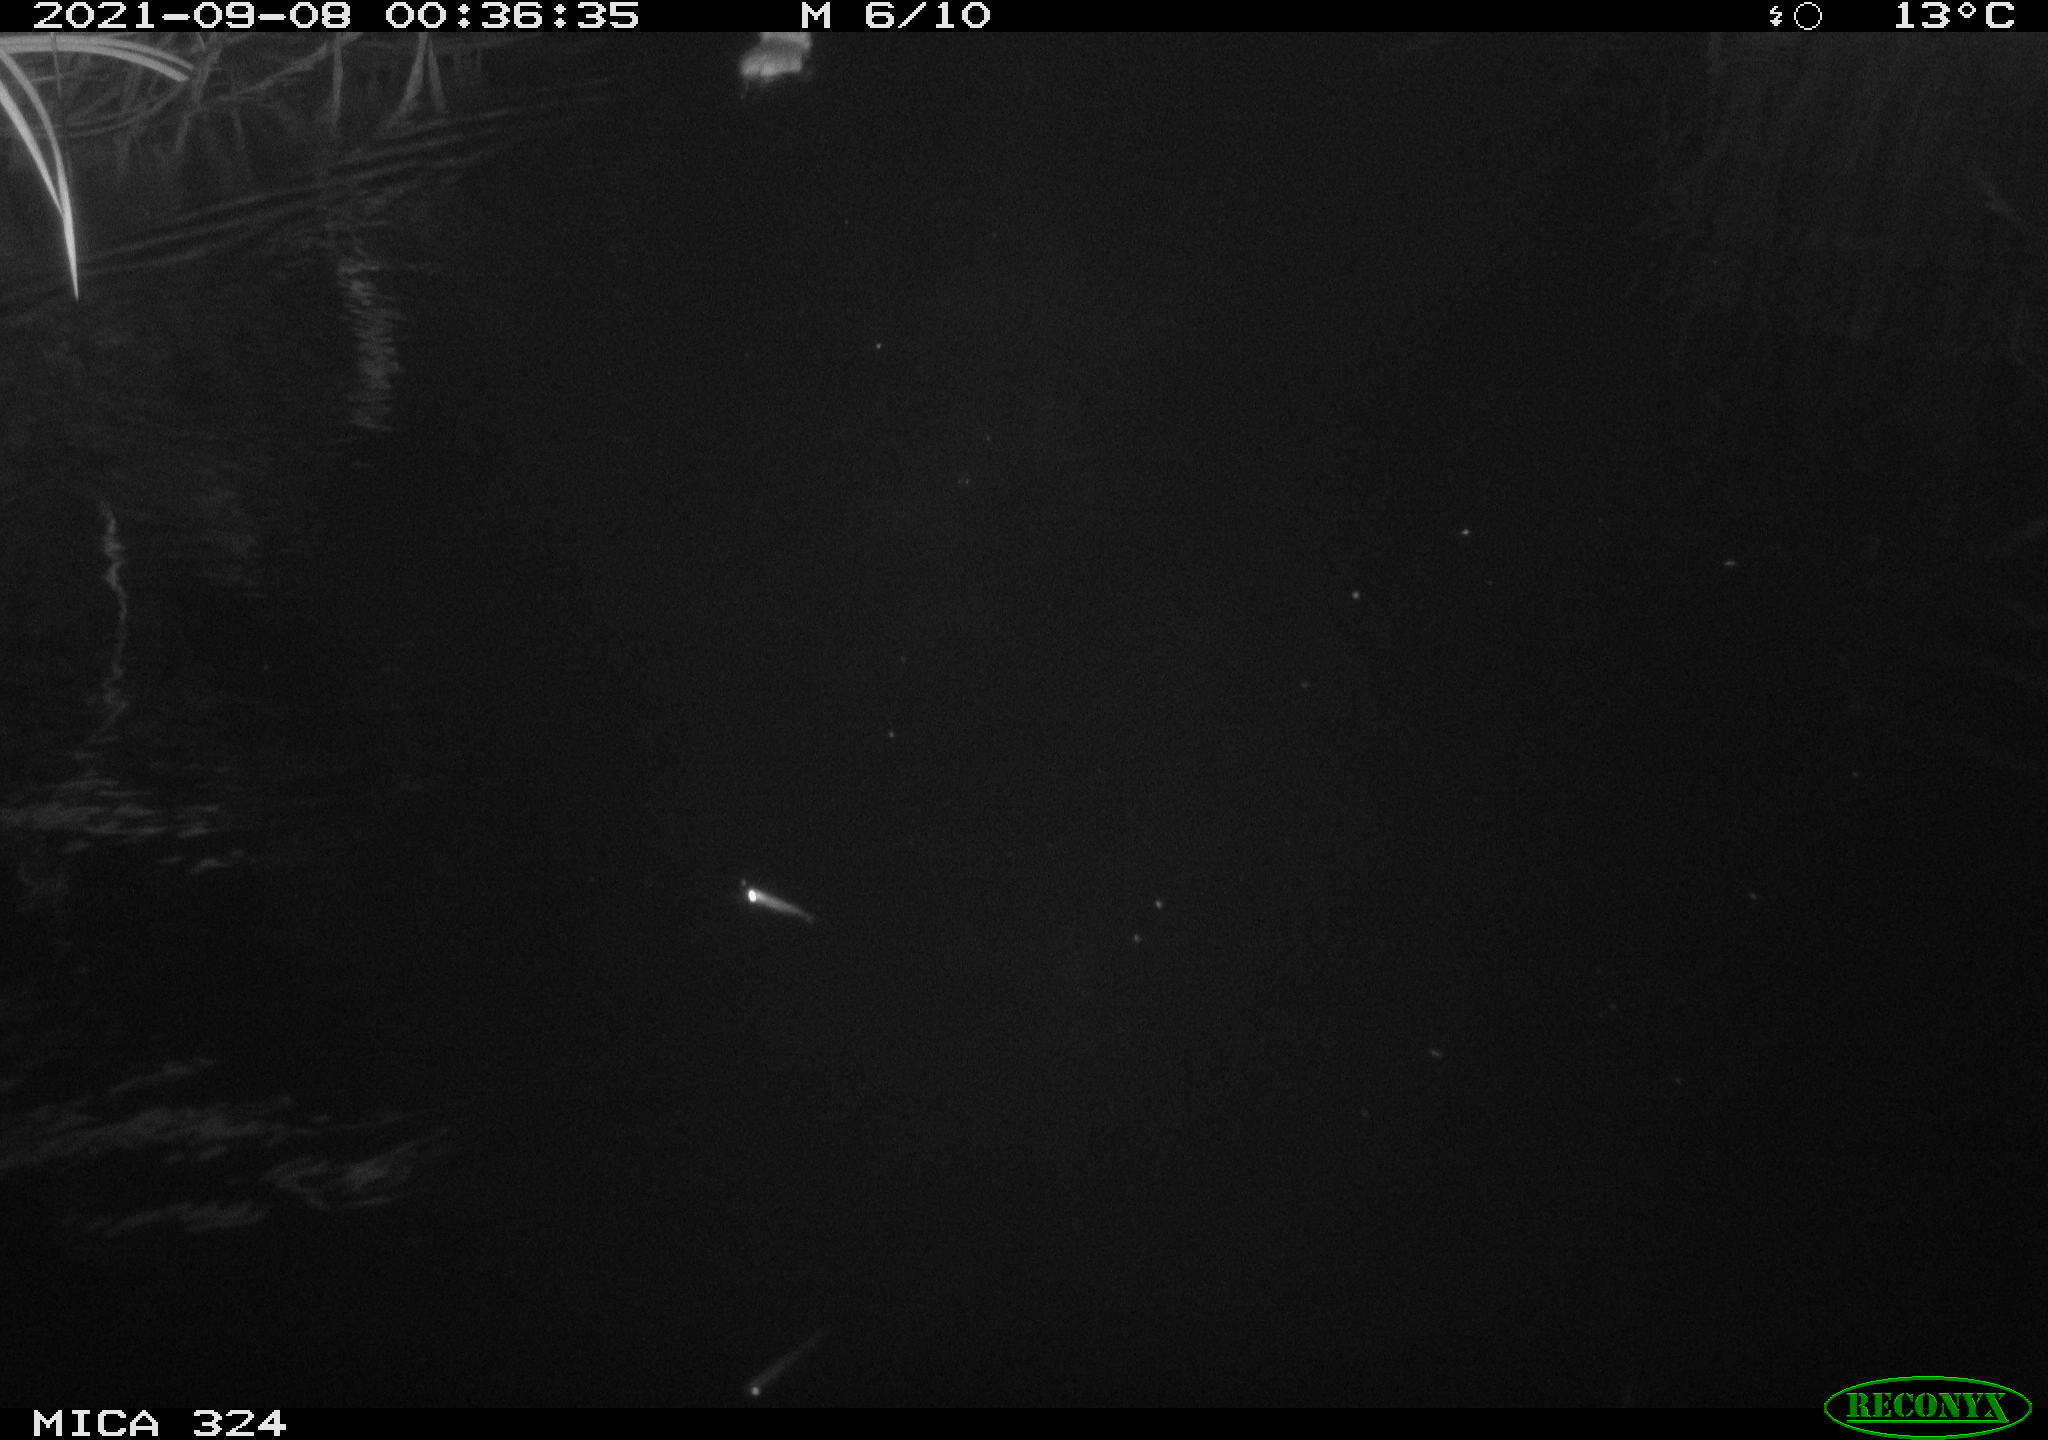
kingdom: Animalia
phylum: Chordata
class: Mammalia
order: Rodentia
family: Cricetidae
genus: Ondatra
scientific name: Ondatra zibethicus
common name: Muskrat
